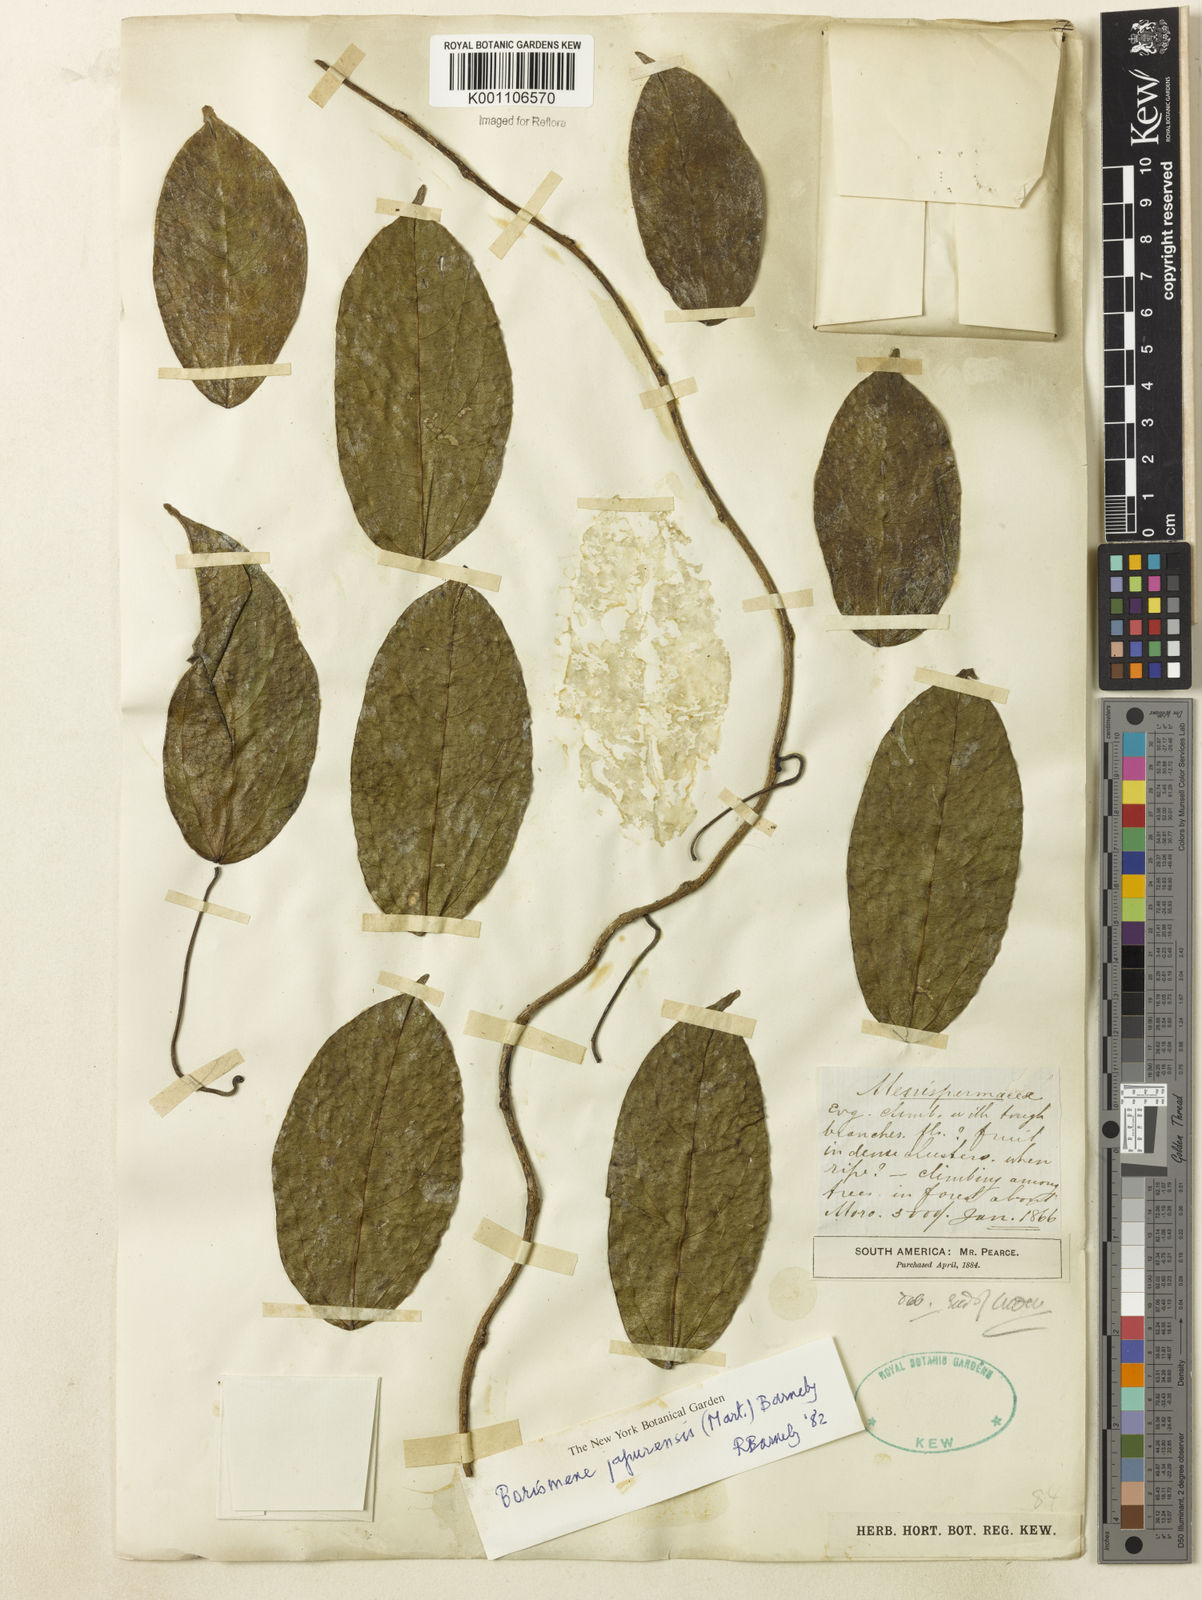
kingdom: Plantae
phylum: Tracheophyta
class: Magnoliopsida
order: Ranunculales
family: Menispermaceae
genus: Borismene
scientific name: Borismene japurensis
